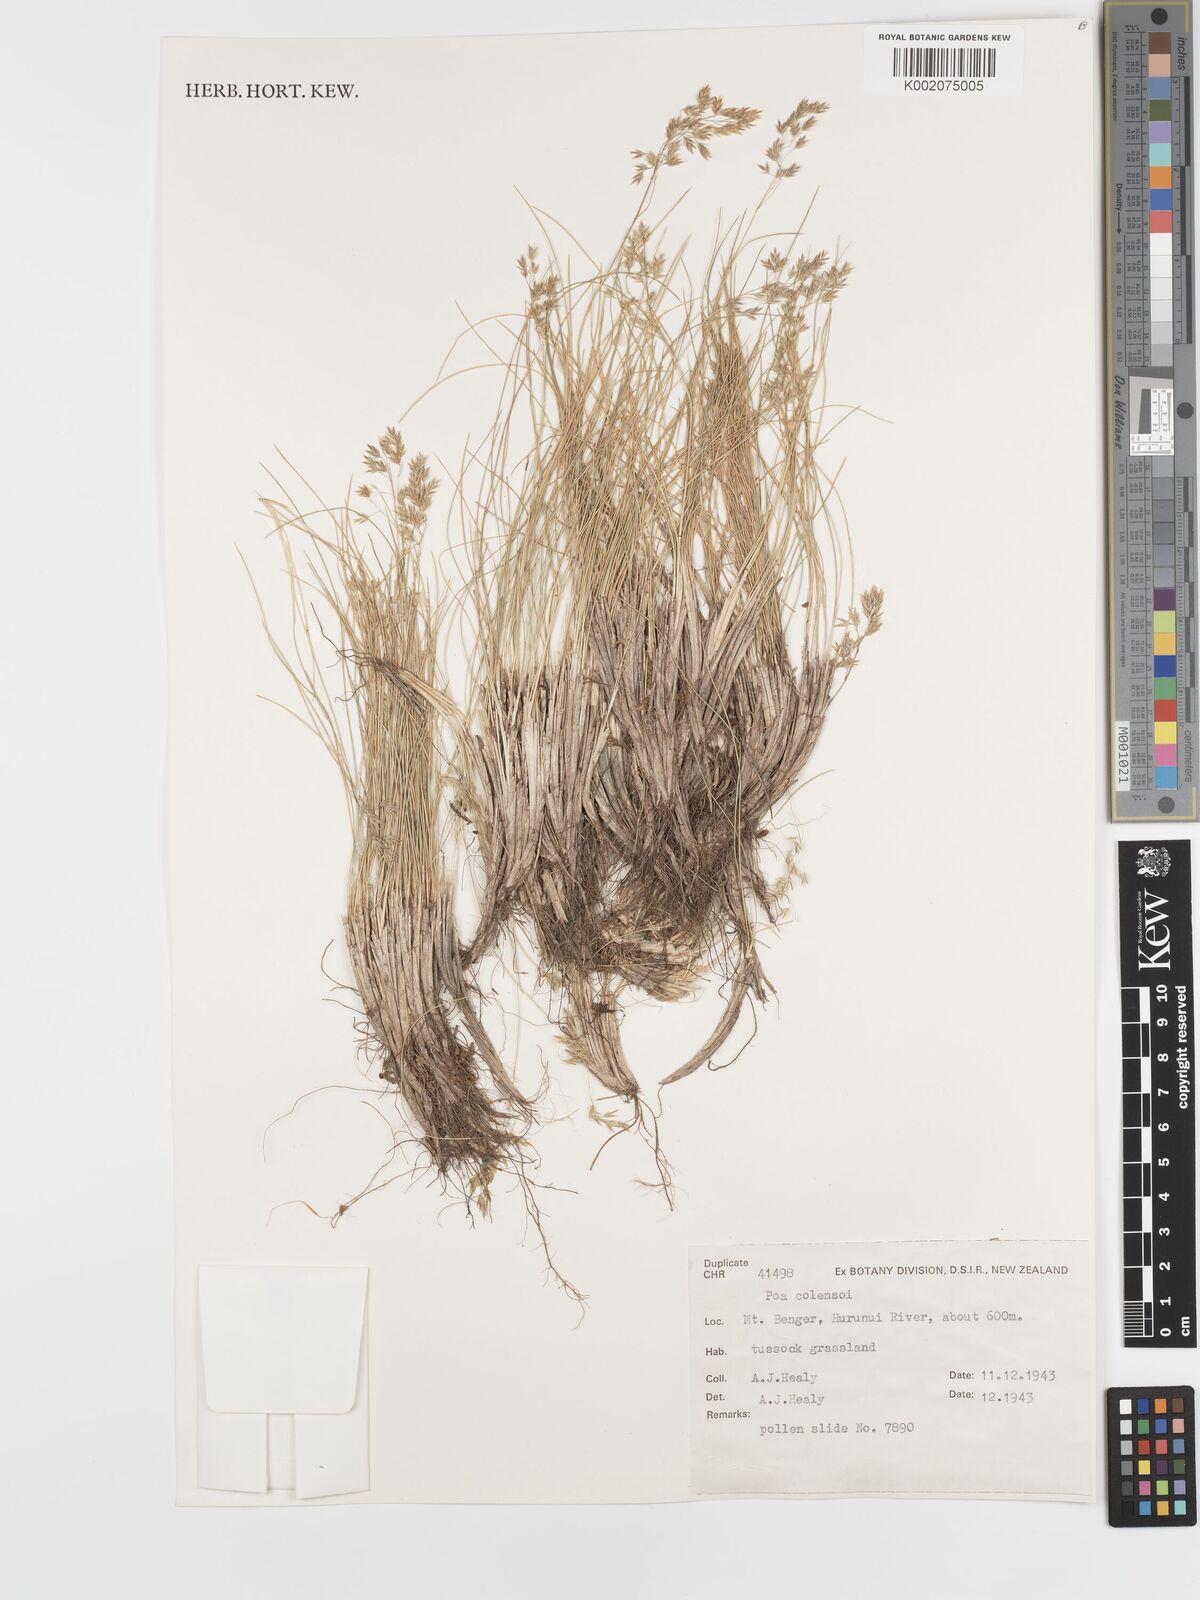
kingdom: Plantae
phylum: Tracheophyta
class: Liliopsida
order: Poales
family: Poaceae
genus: Poa
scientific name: Poa colensoi
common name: Blue tussock
